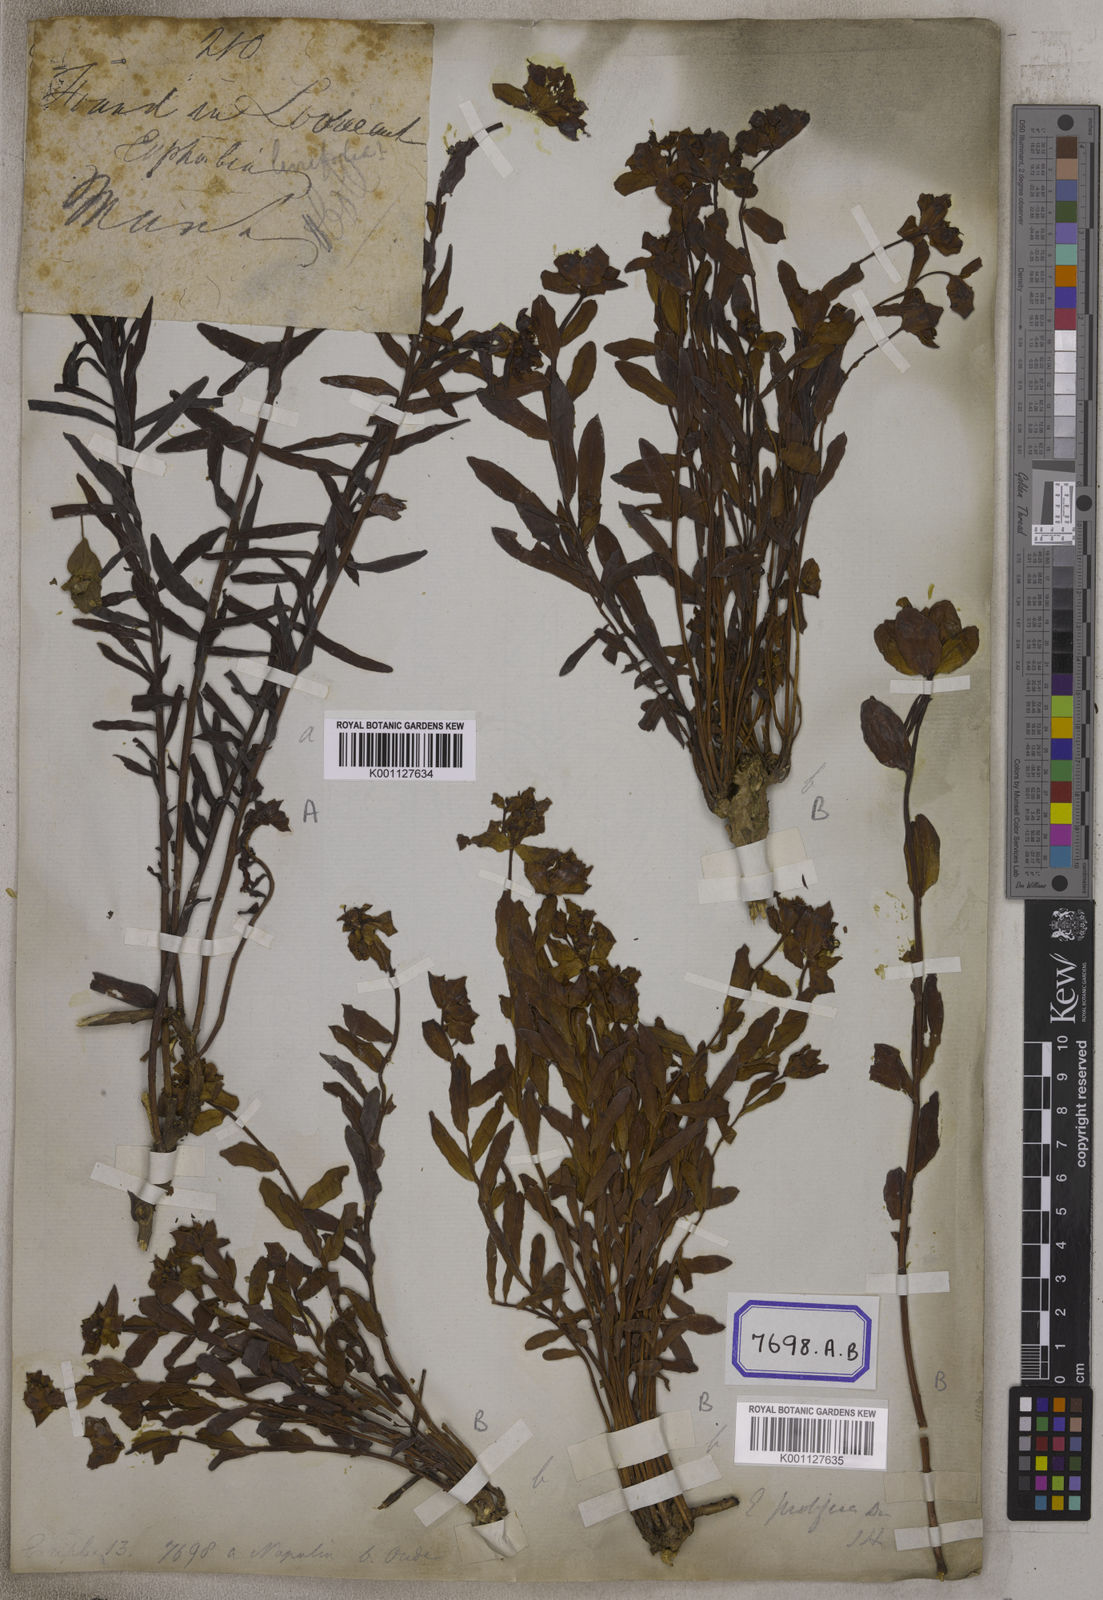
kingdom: Plantae
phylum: Tracheophyta
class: Magnoliopsida
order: Malpighiales
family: Euphorbiaceae
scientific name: Euphorbiaceae
